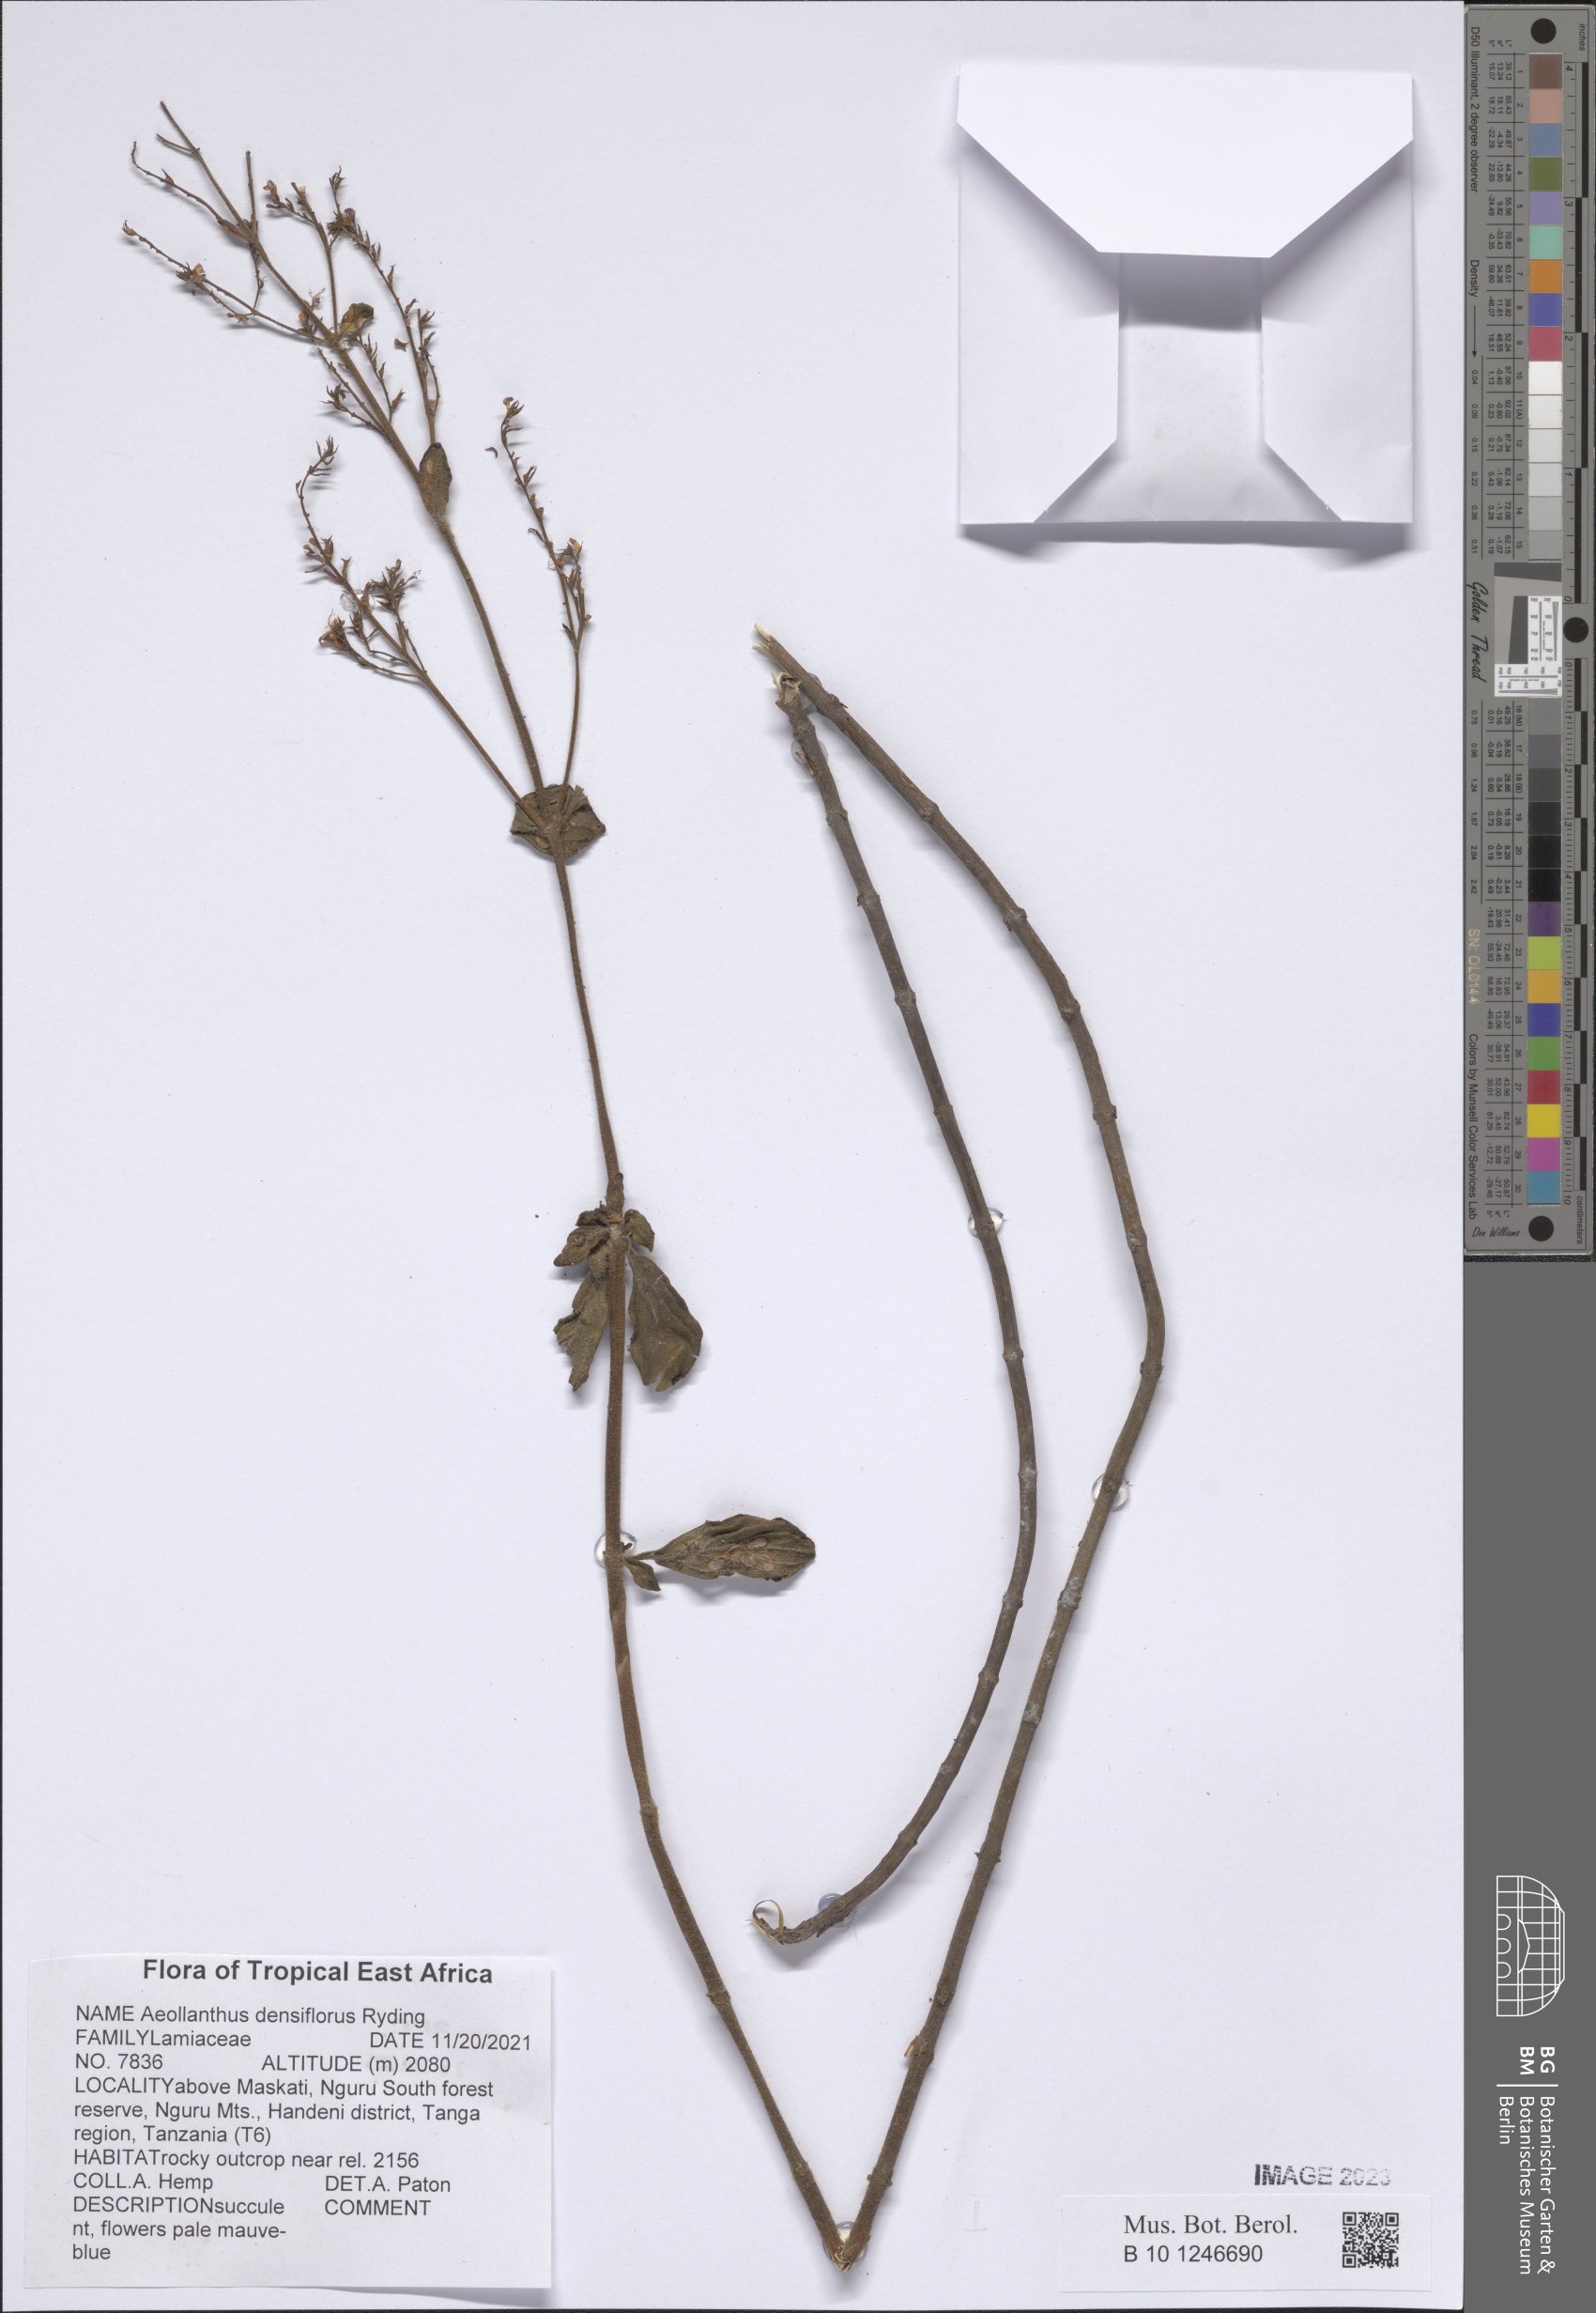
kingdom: Plantae
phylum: Tracheophyta
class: Magnoliopsida
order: Lamiales
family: Lamiaceae
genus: Aeollanthus
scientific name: Aeollanthus densiflorus
